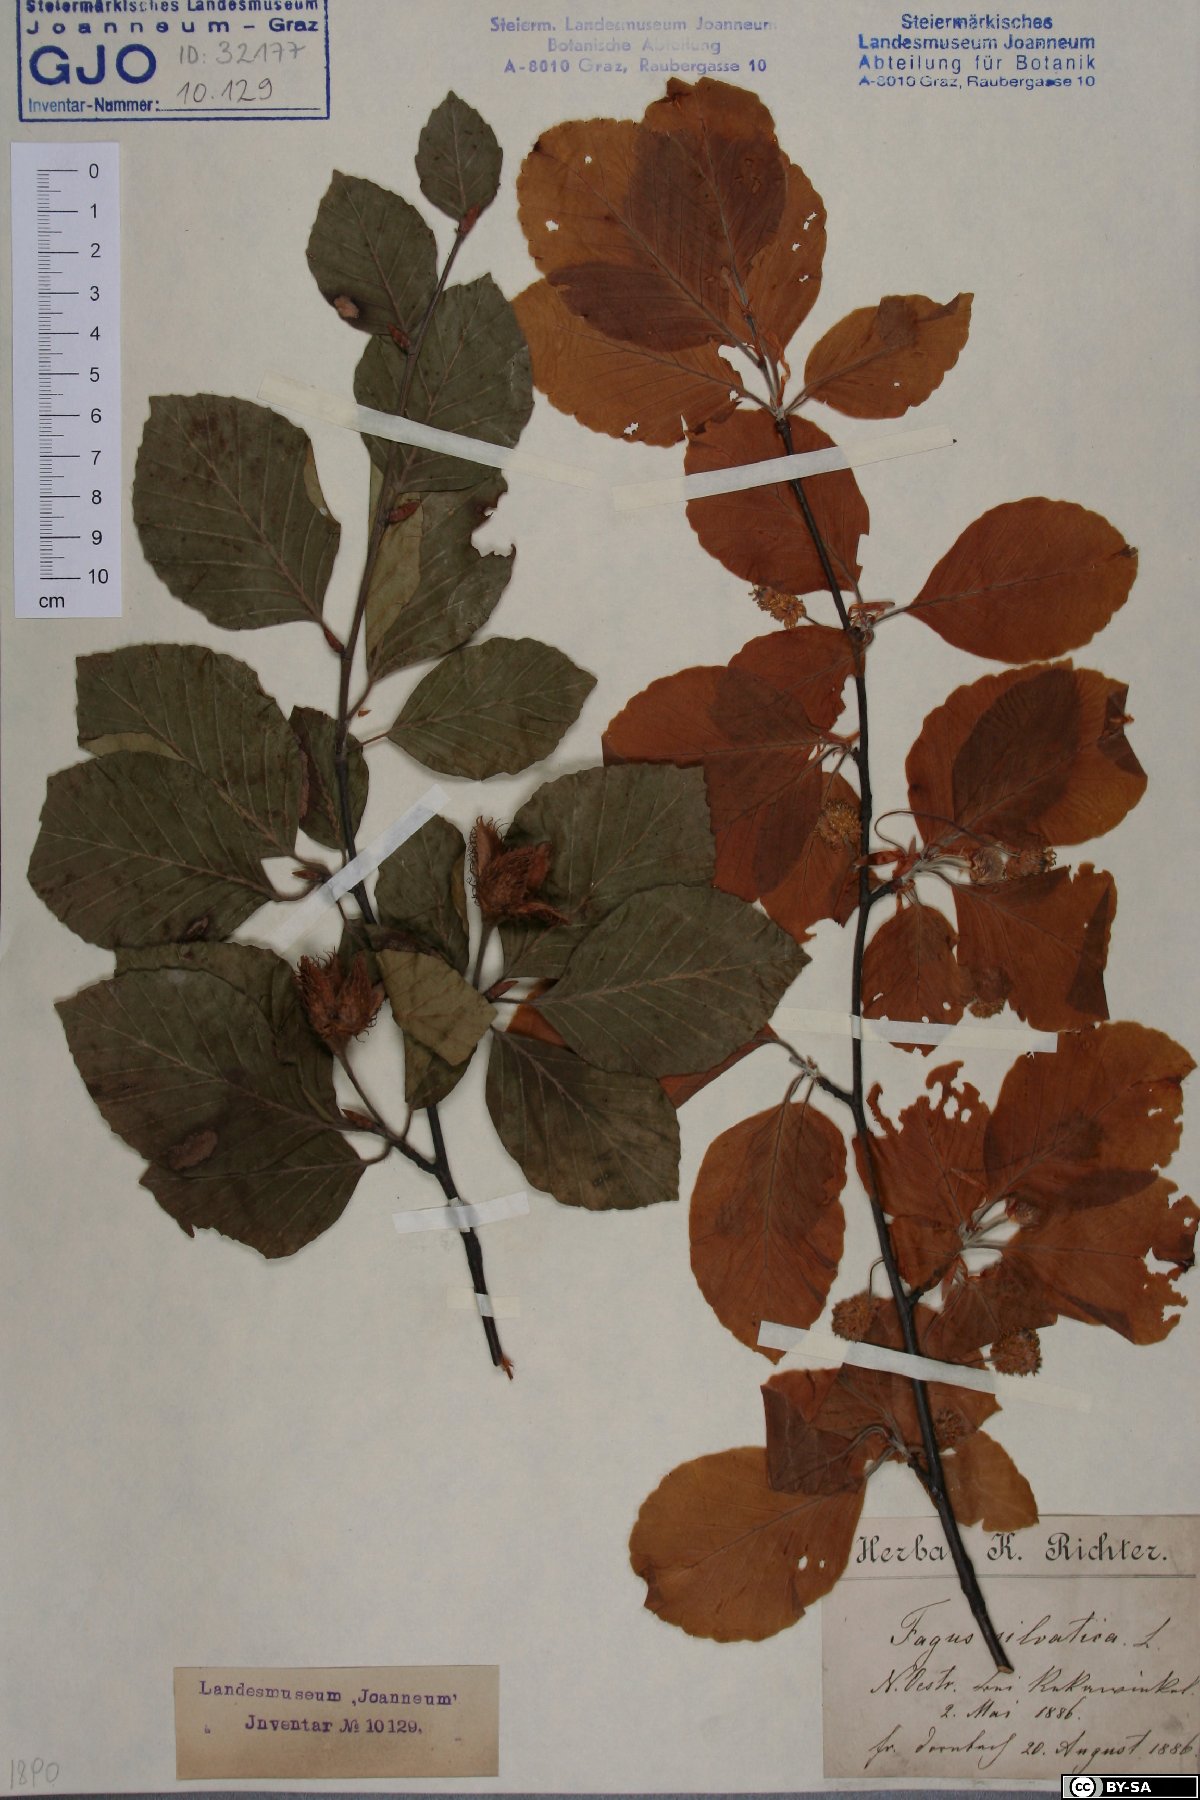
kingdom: Plantae
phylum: Tracheophyta
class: Magnoliopsida
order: Fagales
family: Fagaceae
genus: Fagus
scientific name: Fagus sylvatica
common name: Beech
